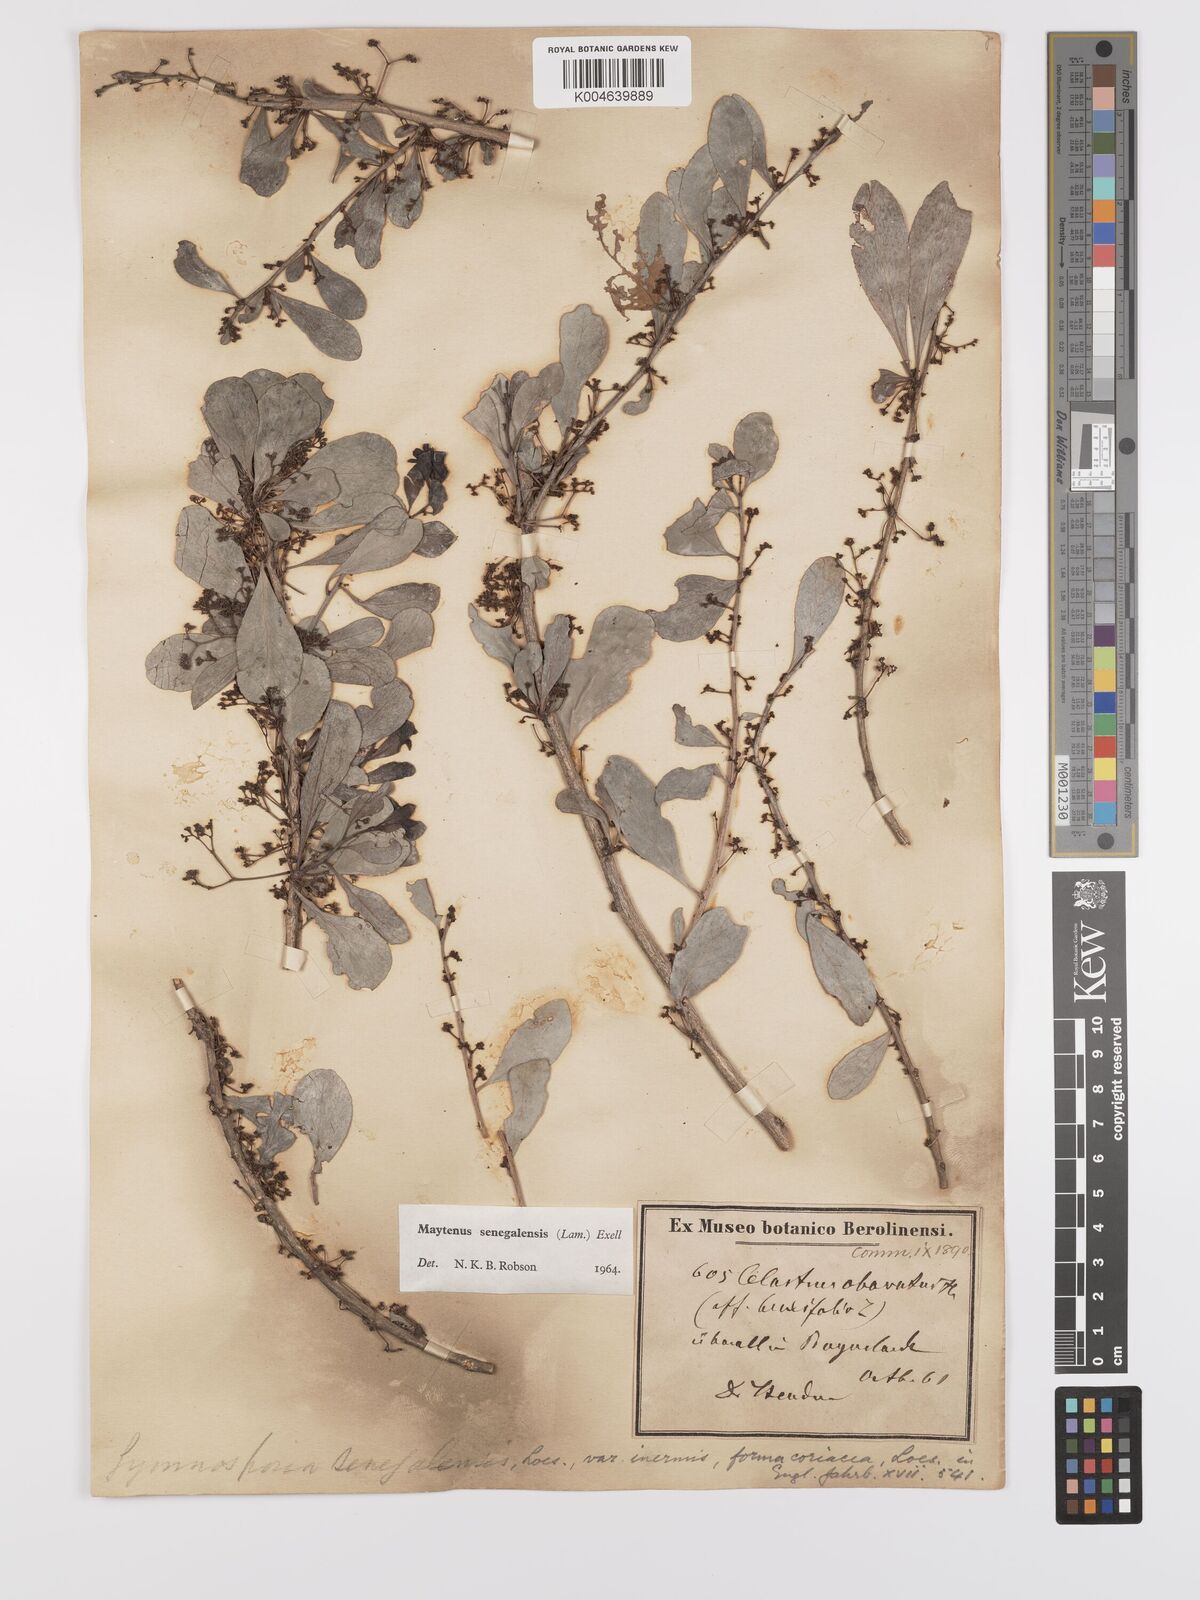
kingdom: Plantae
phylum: Tracheophyta
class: Magnoliopsida
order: Celastrales
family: Celastraceae
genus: Gymnosporia
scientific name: Gymnosporia senegalensis
